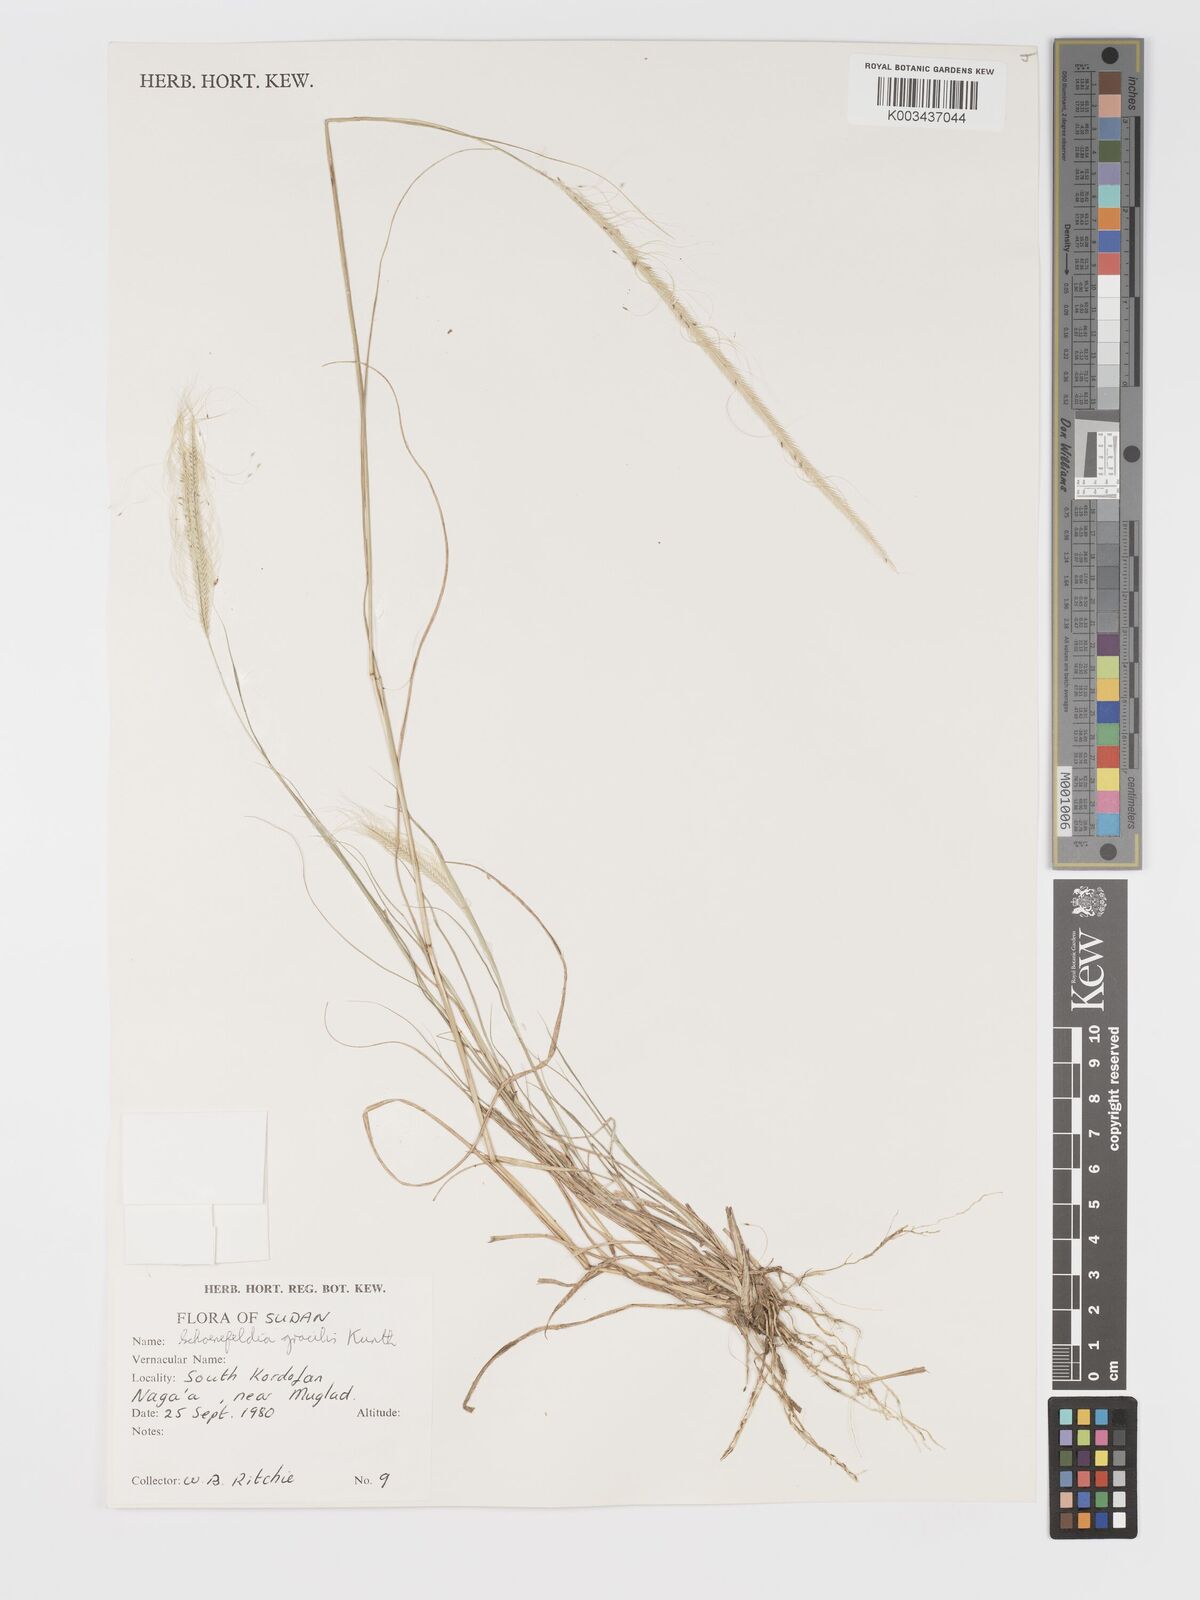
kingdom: Plantae
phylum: Tracheophyta
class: Liliopsida
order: Poales
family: Poaceae
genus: Schoenefeldia
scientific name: Schoenefeldia gracilis
